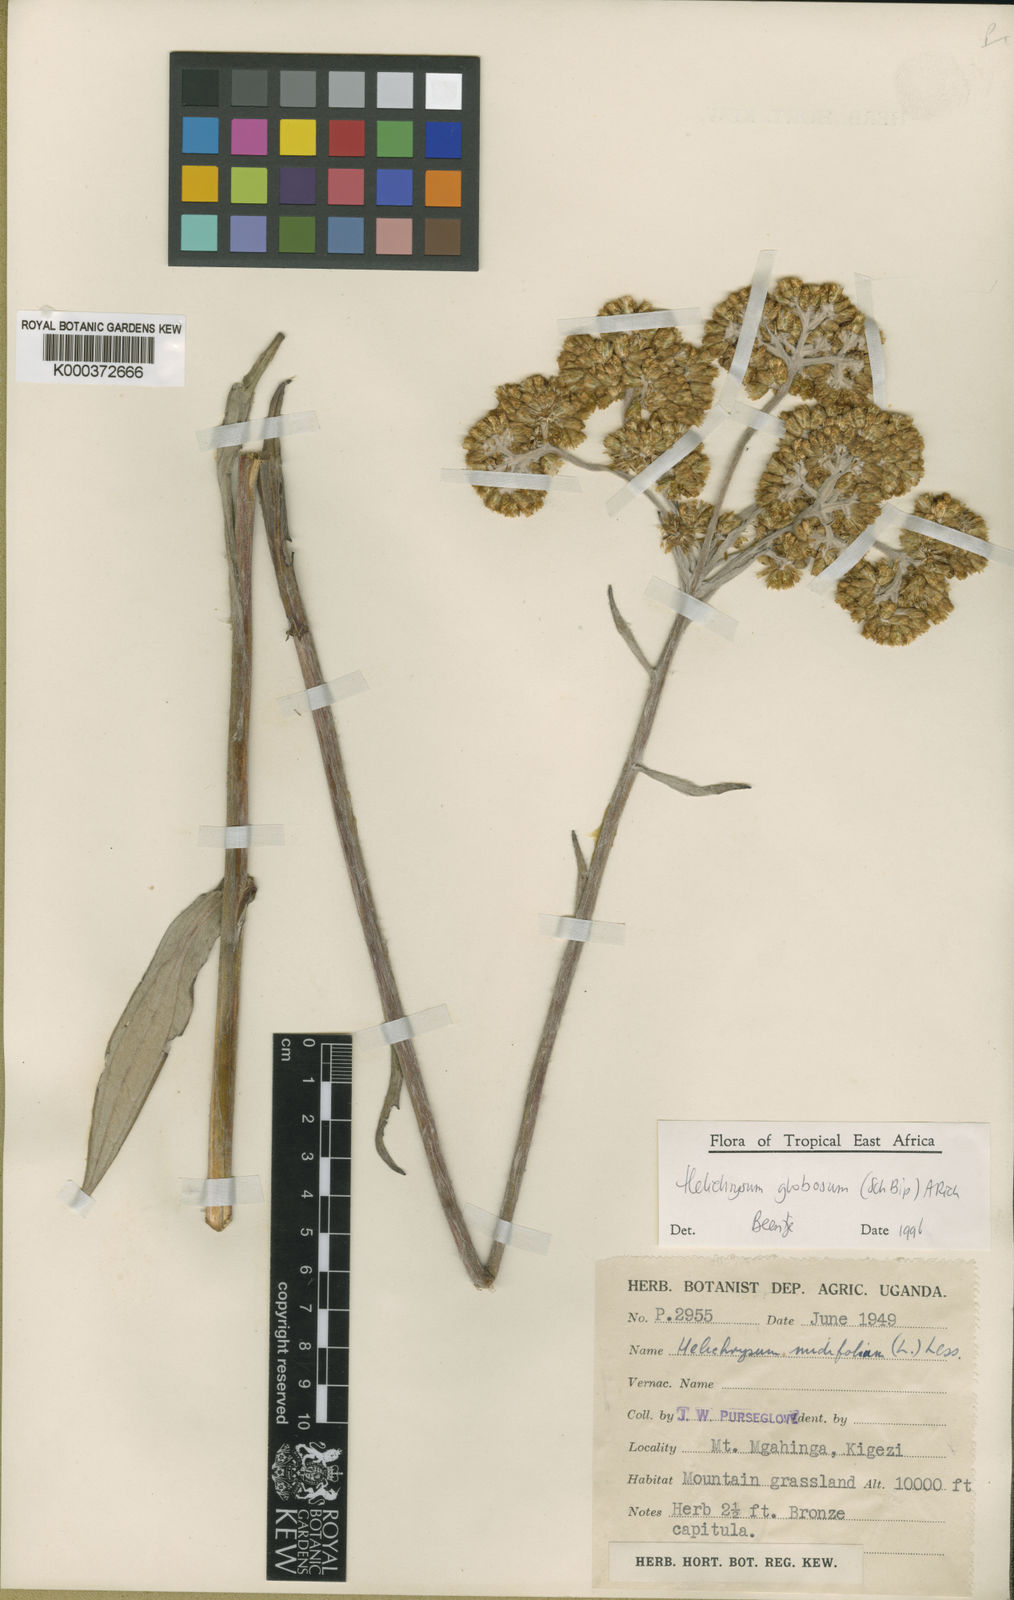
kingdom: Plantae
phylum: Tracheophyta
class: Magnoliopsida
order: Asterales
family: Asteraceae
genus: Helichrysum
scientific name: Helichrysum globosum
